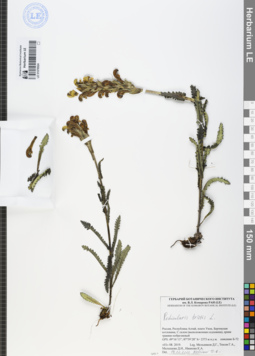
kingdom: Plantae
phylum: Tracheophyta
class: Magnoliopsida
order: Lamiales
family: Orobanchaceae
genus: Pedicularis
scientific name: Pedicularis tristis
